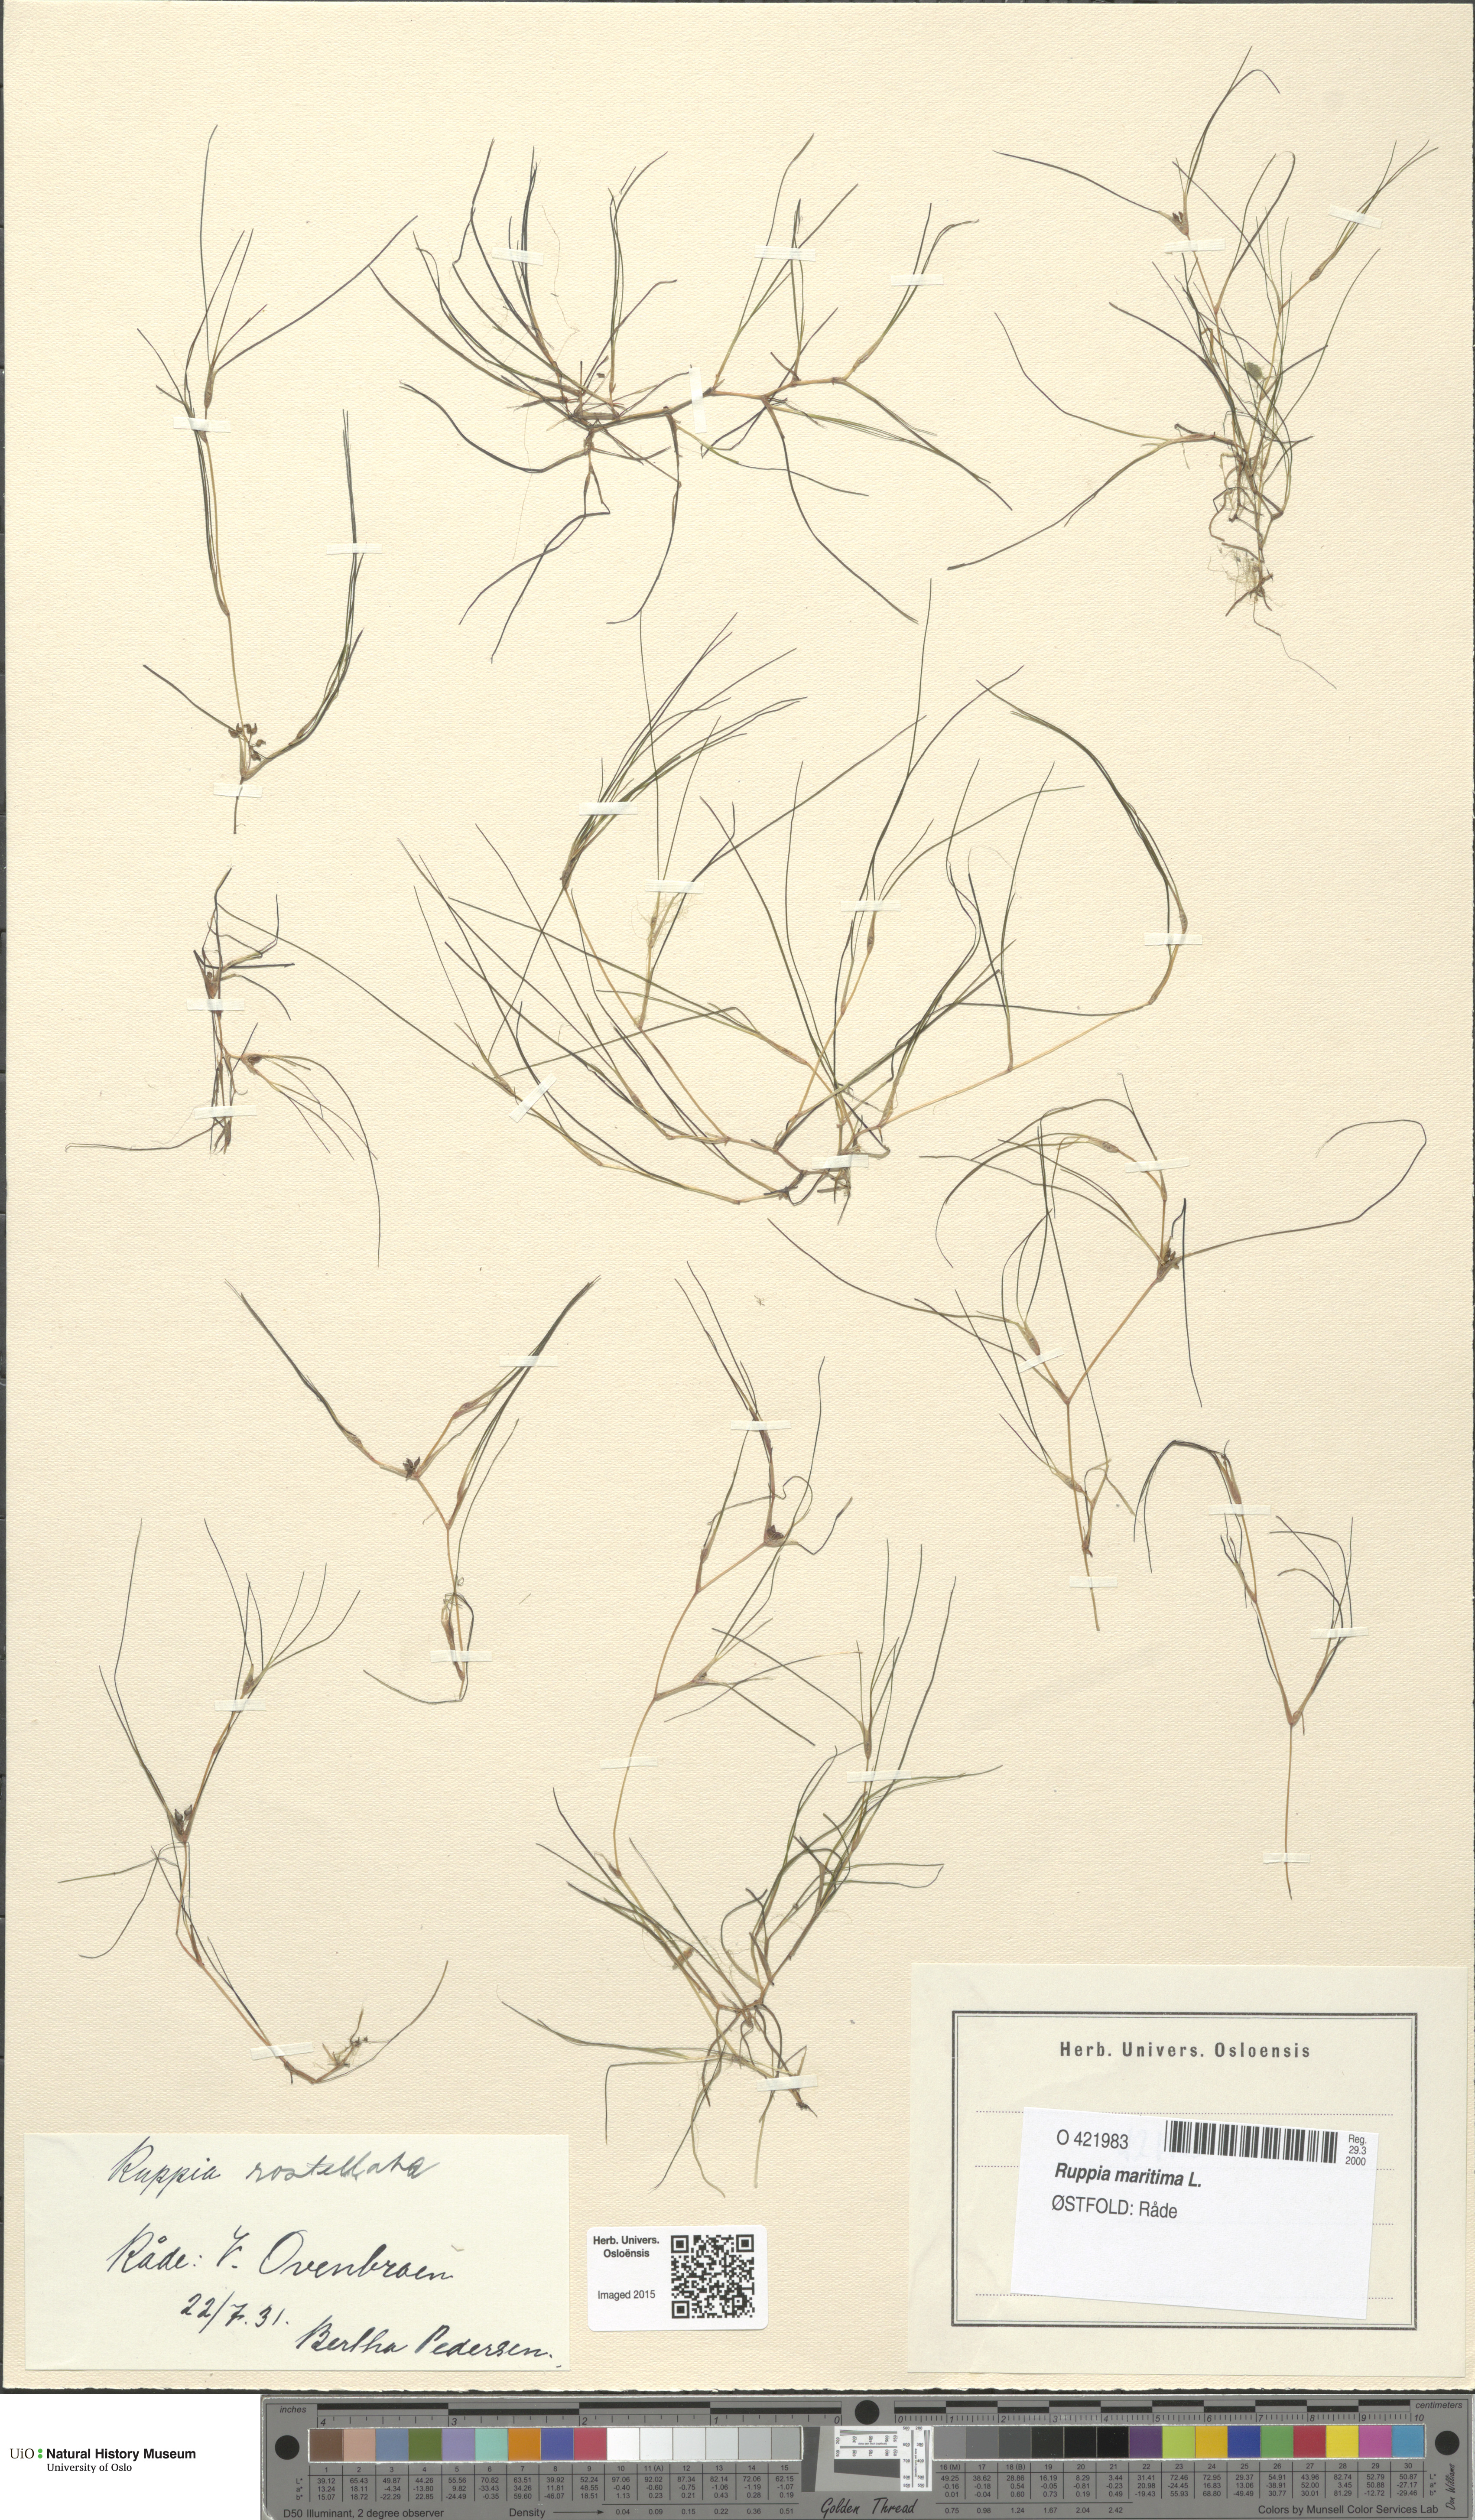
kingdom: Plantae
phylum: Tracheophyta
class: Liliopsida
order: Alismatales
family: Ruppiaceae
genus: Ruppia
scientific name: Ruppia maritima
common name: Beaked tasselweed
